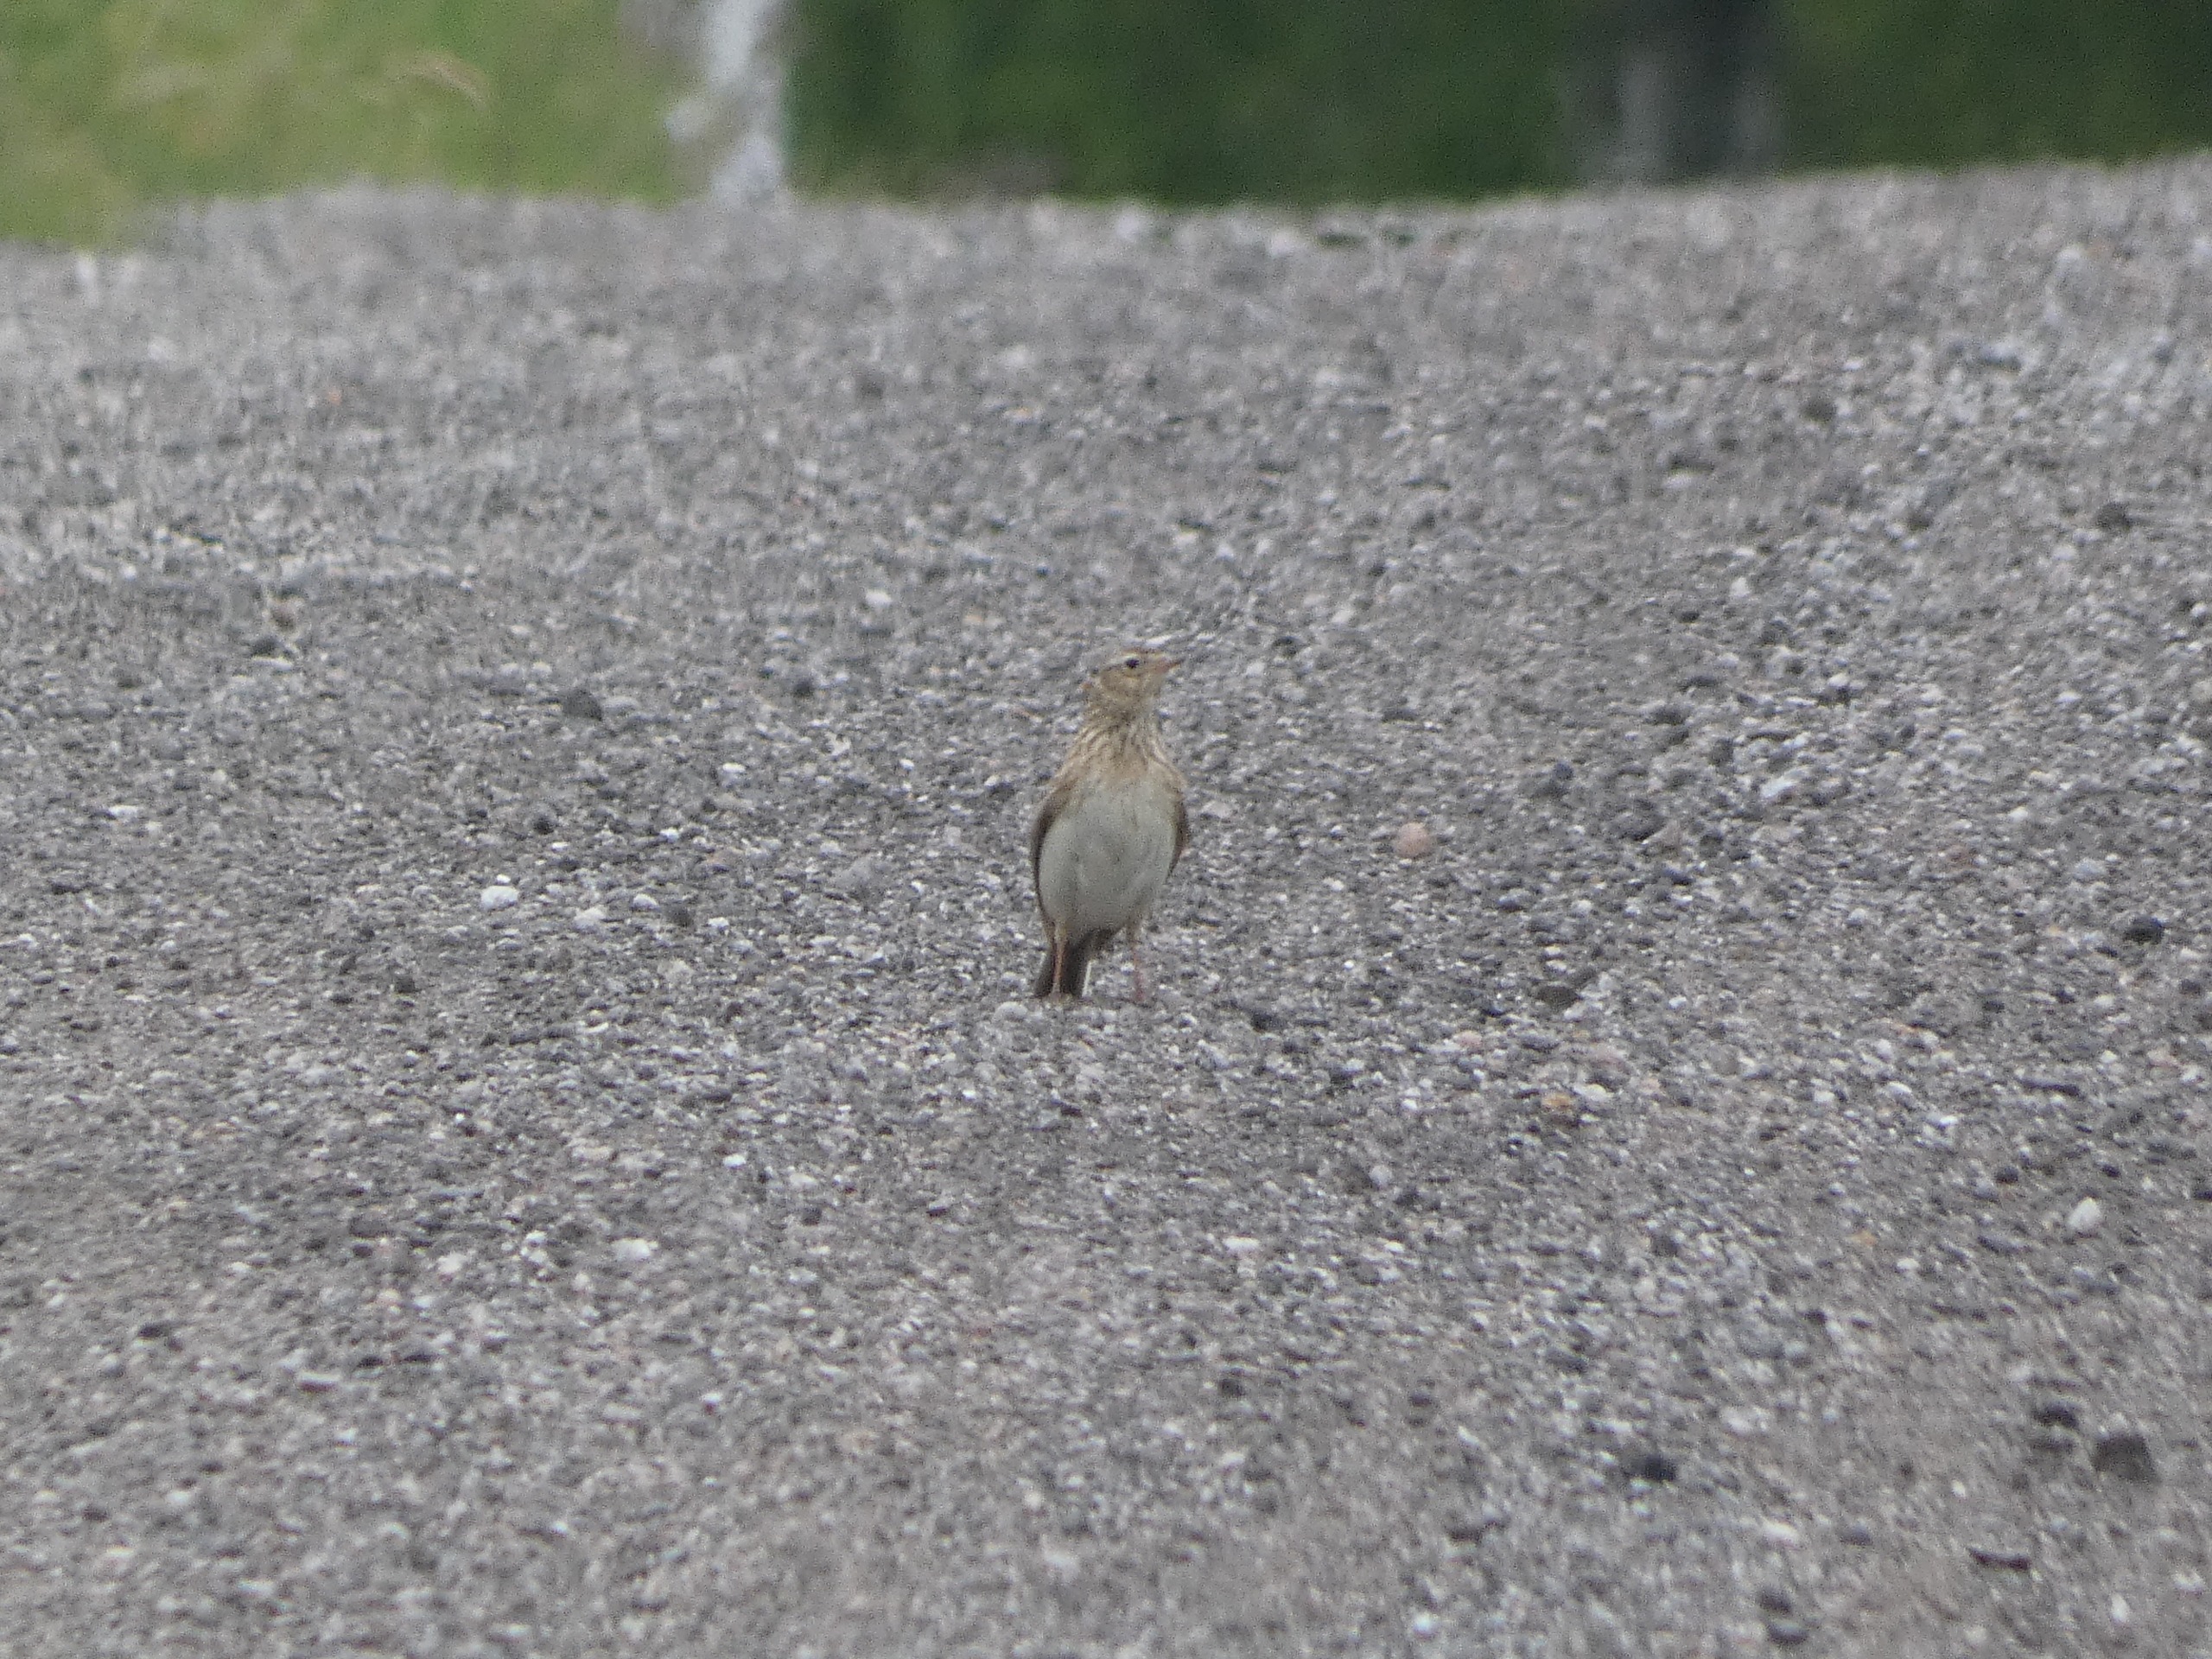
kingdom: Animalia
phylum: Chordata
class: Aves
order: Passeriformes
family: Alaudidae
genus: Alauda
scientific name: Alauda arvensis
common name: Sanglærke
